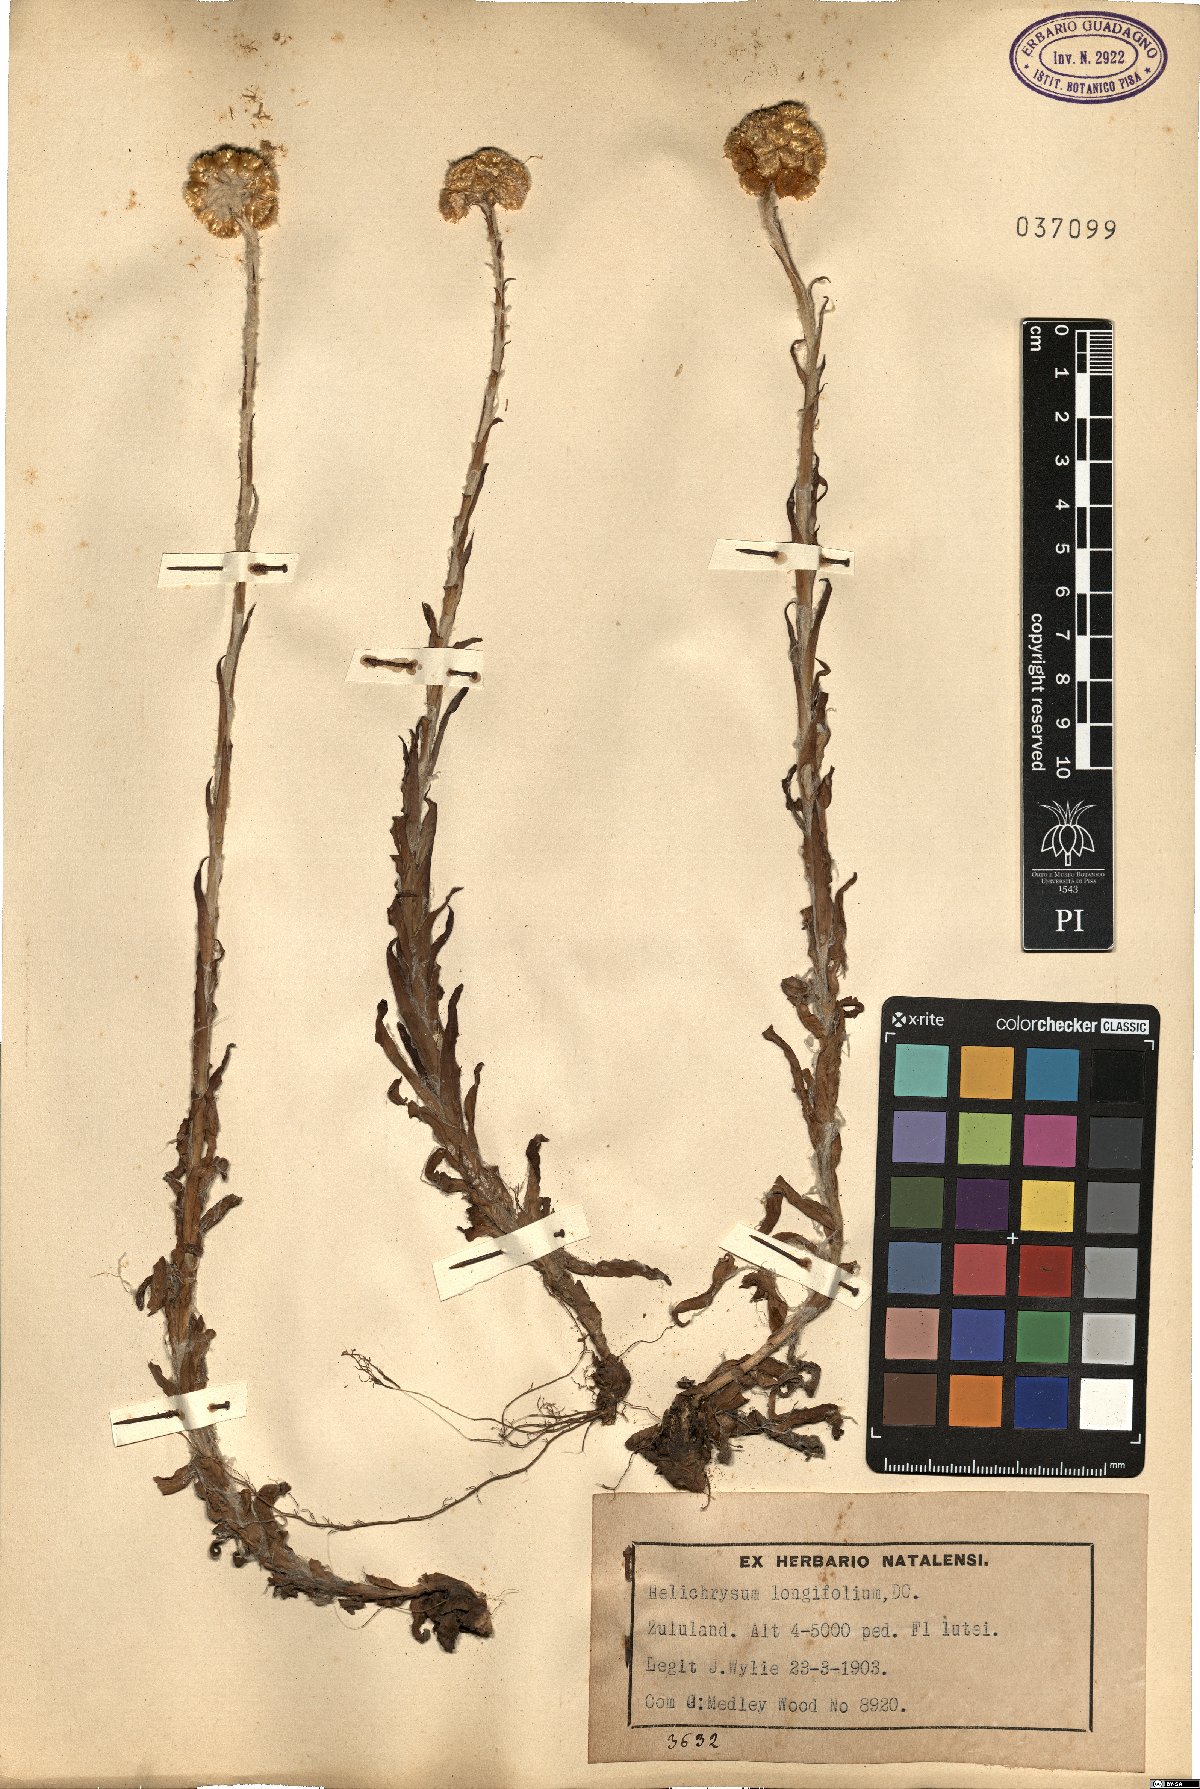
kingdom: Plantae
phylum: Tracheophyta
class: Magnoliopsida
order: Asterales
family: Asteraceae
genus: Helichrysum
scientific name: Helichrysum longifolium
